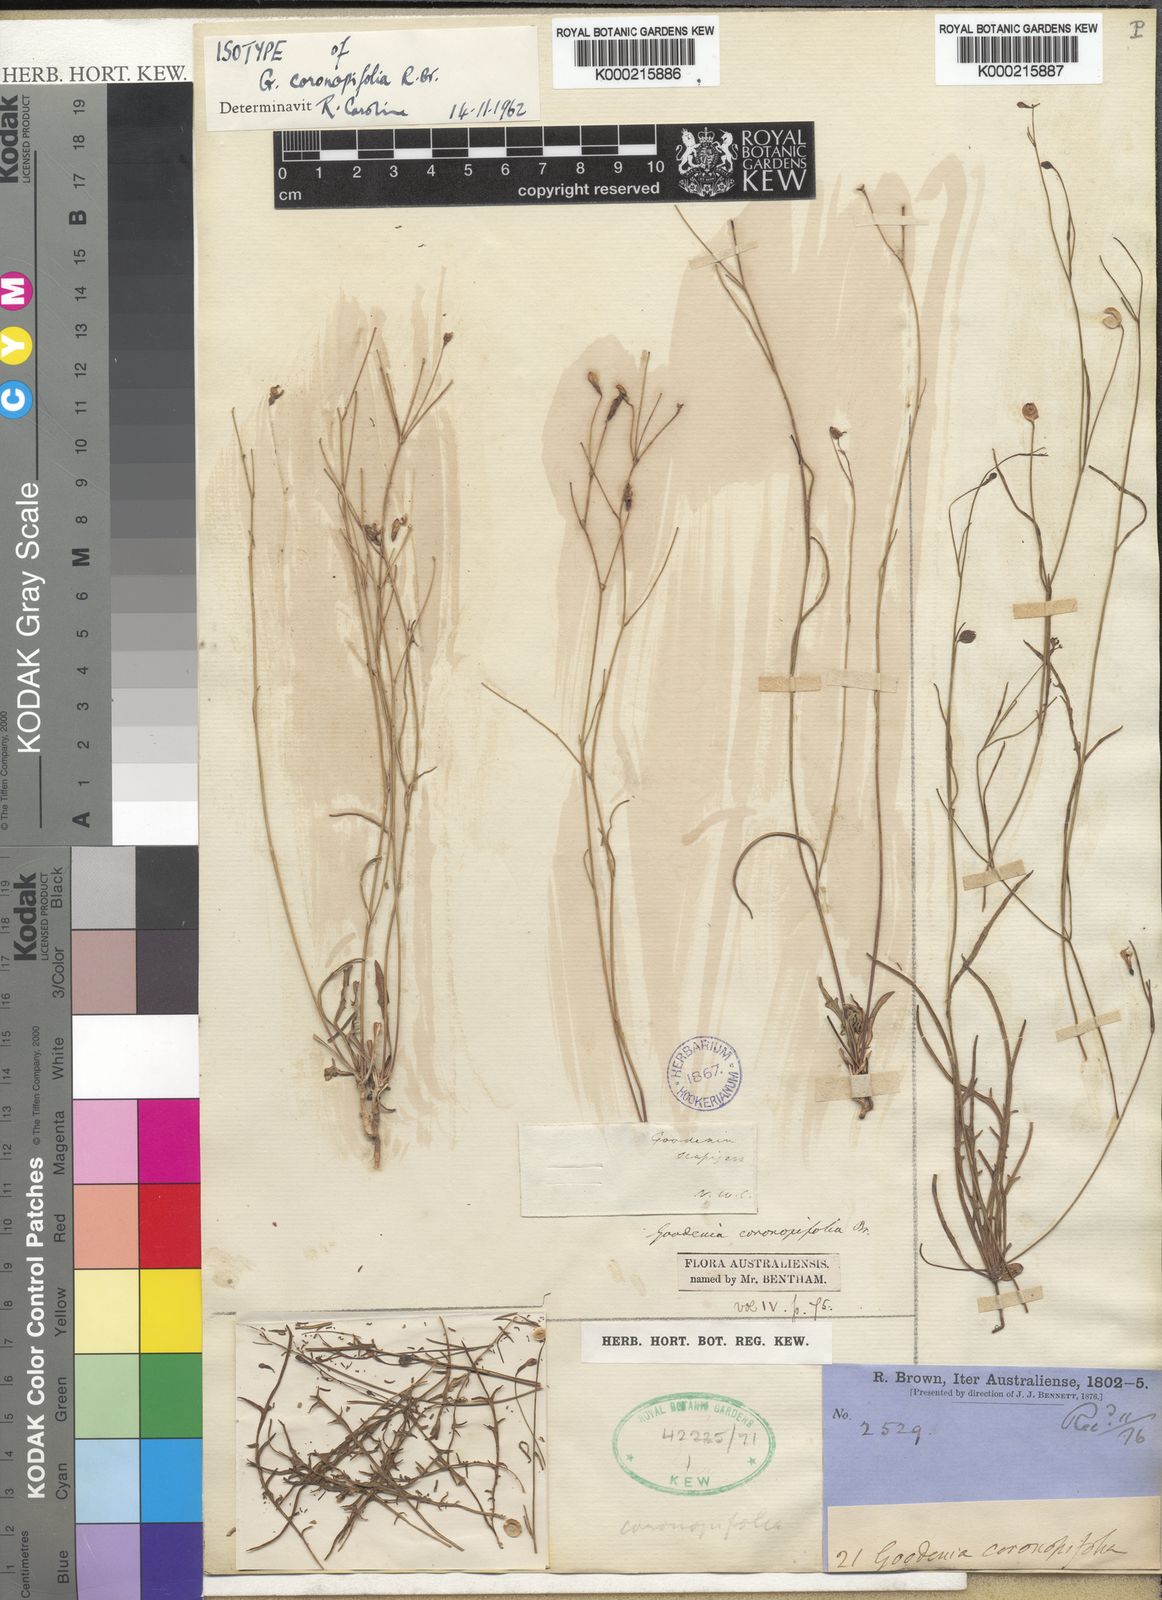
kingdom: Plantae
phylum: Tracheophyta
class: Magnoliopsida
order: Asterales
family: Goodeniaceae
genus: Goodenia
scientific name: Goodenia coronopifolia
